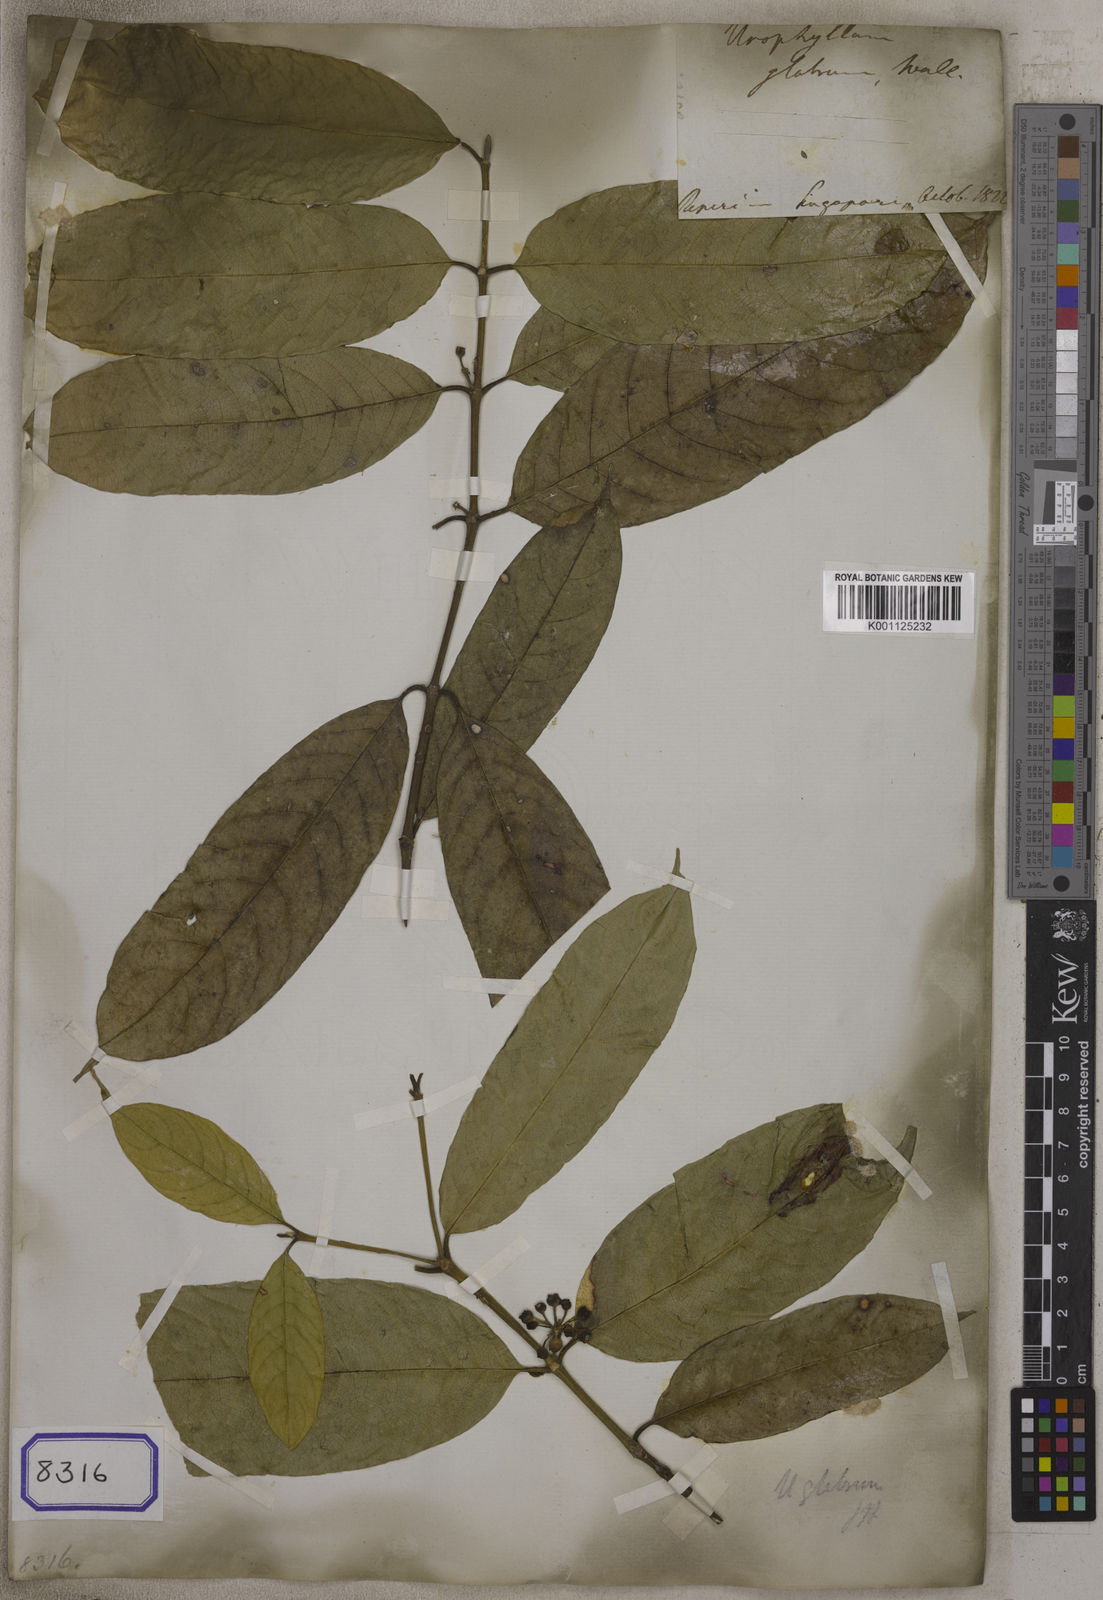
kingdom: Plantae
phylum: Tracheophyta
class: Magnoliopsida
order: Gentianales
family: Rubiaceae
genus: Urophyllum
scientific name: Urophyllum glabrum
